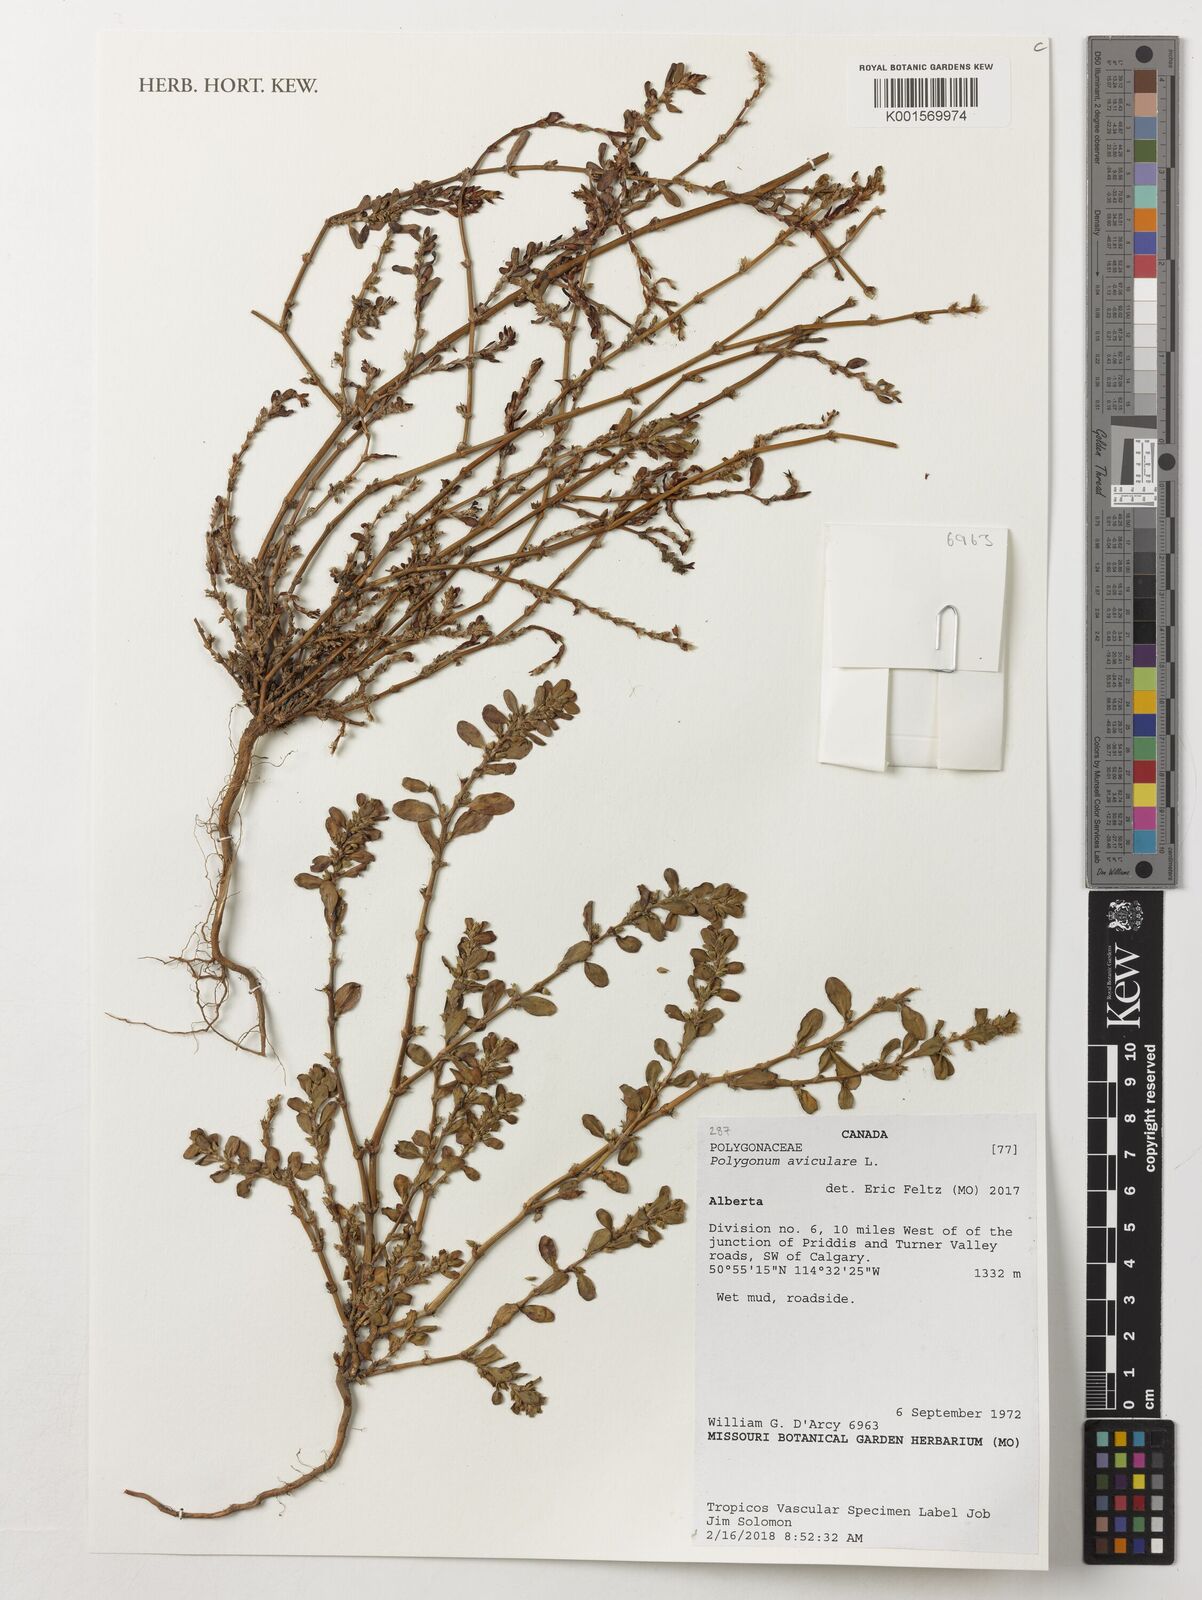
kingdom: Plantae
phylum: Tracheophyta
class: Magnoliopsida
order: Caryophyllales
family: Polygonaceae
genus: Polygonum
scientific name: Polygonum aviculare
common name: Prostrate knotweed
